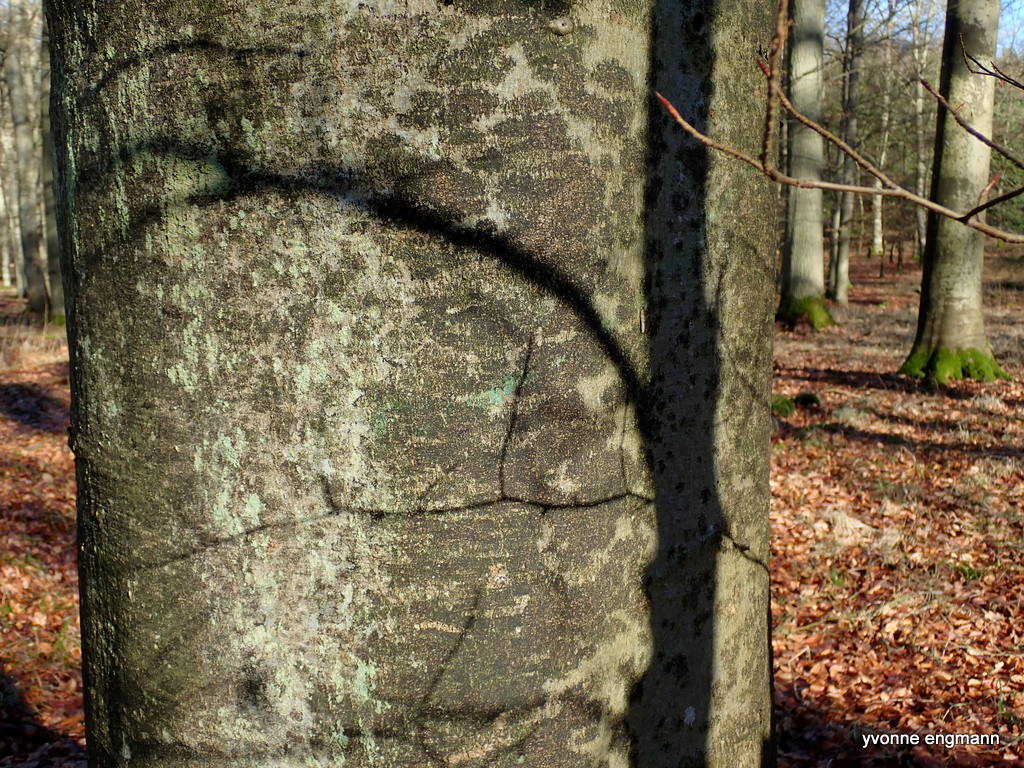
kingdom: Fungi
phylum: Ascomycota
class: Leotiomycetes
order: Rhytismatales
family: Ascodichaenaceae
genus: Ascodichaena
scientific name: Ascodichaena rugosa
